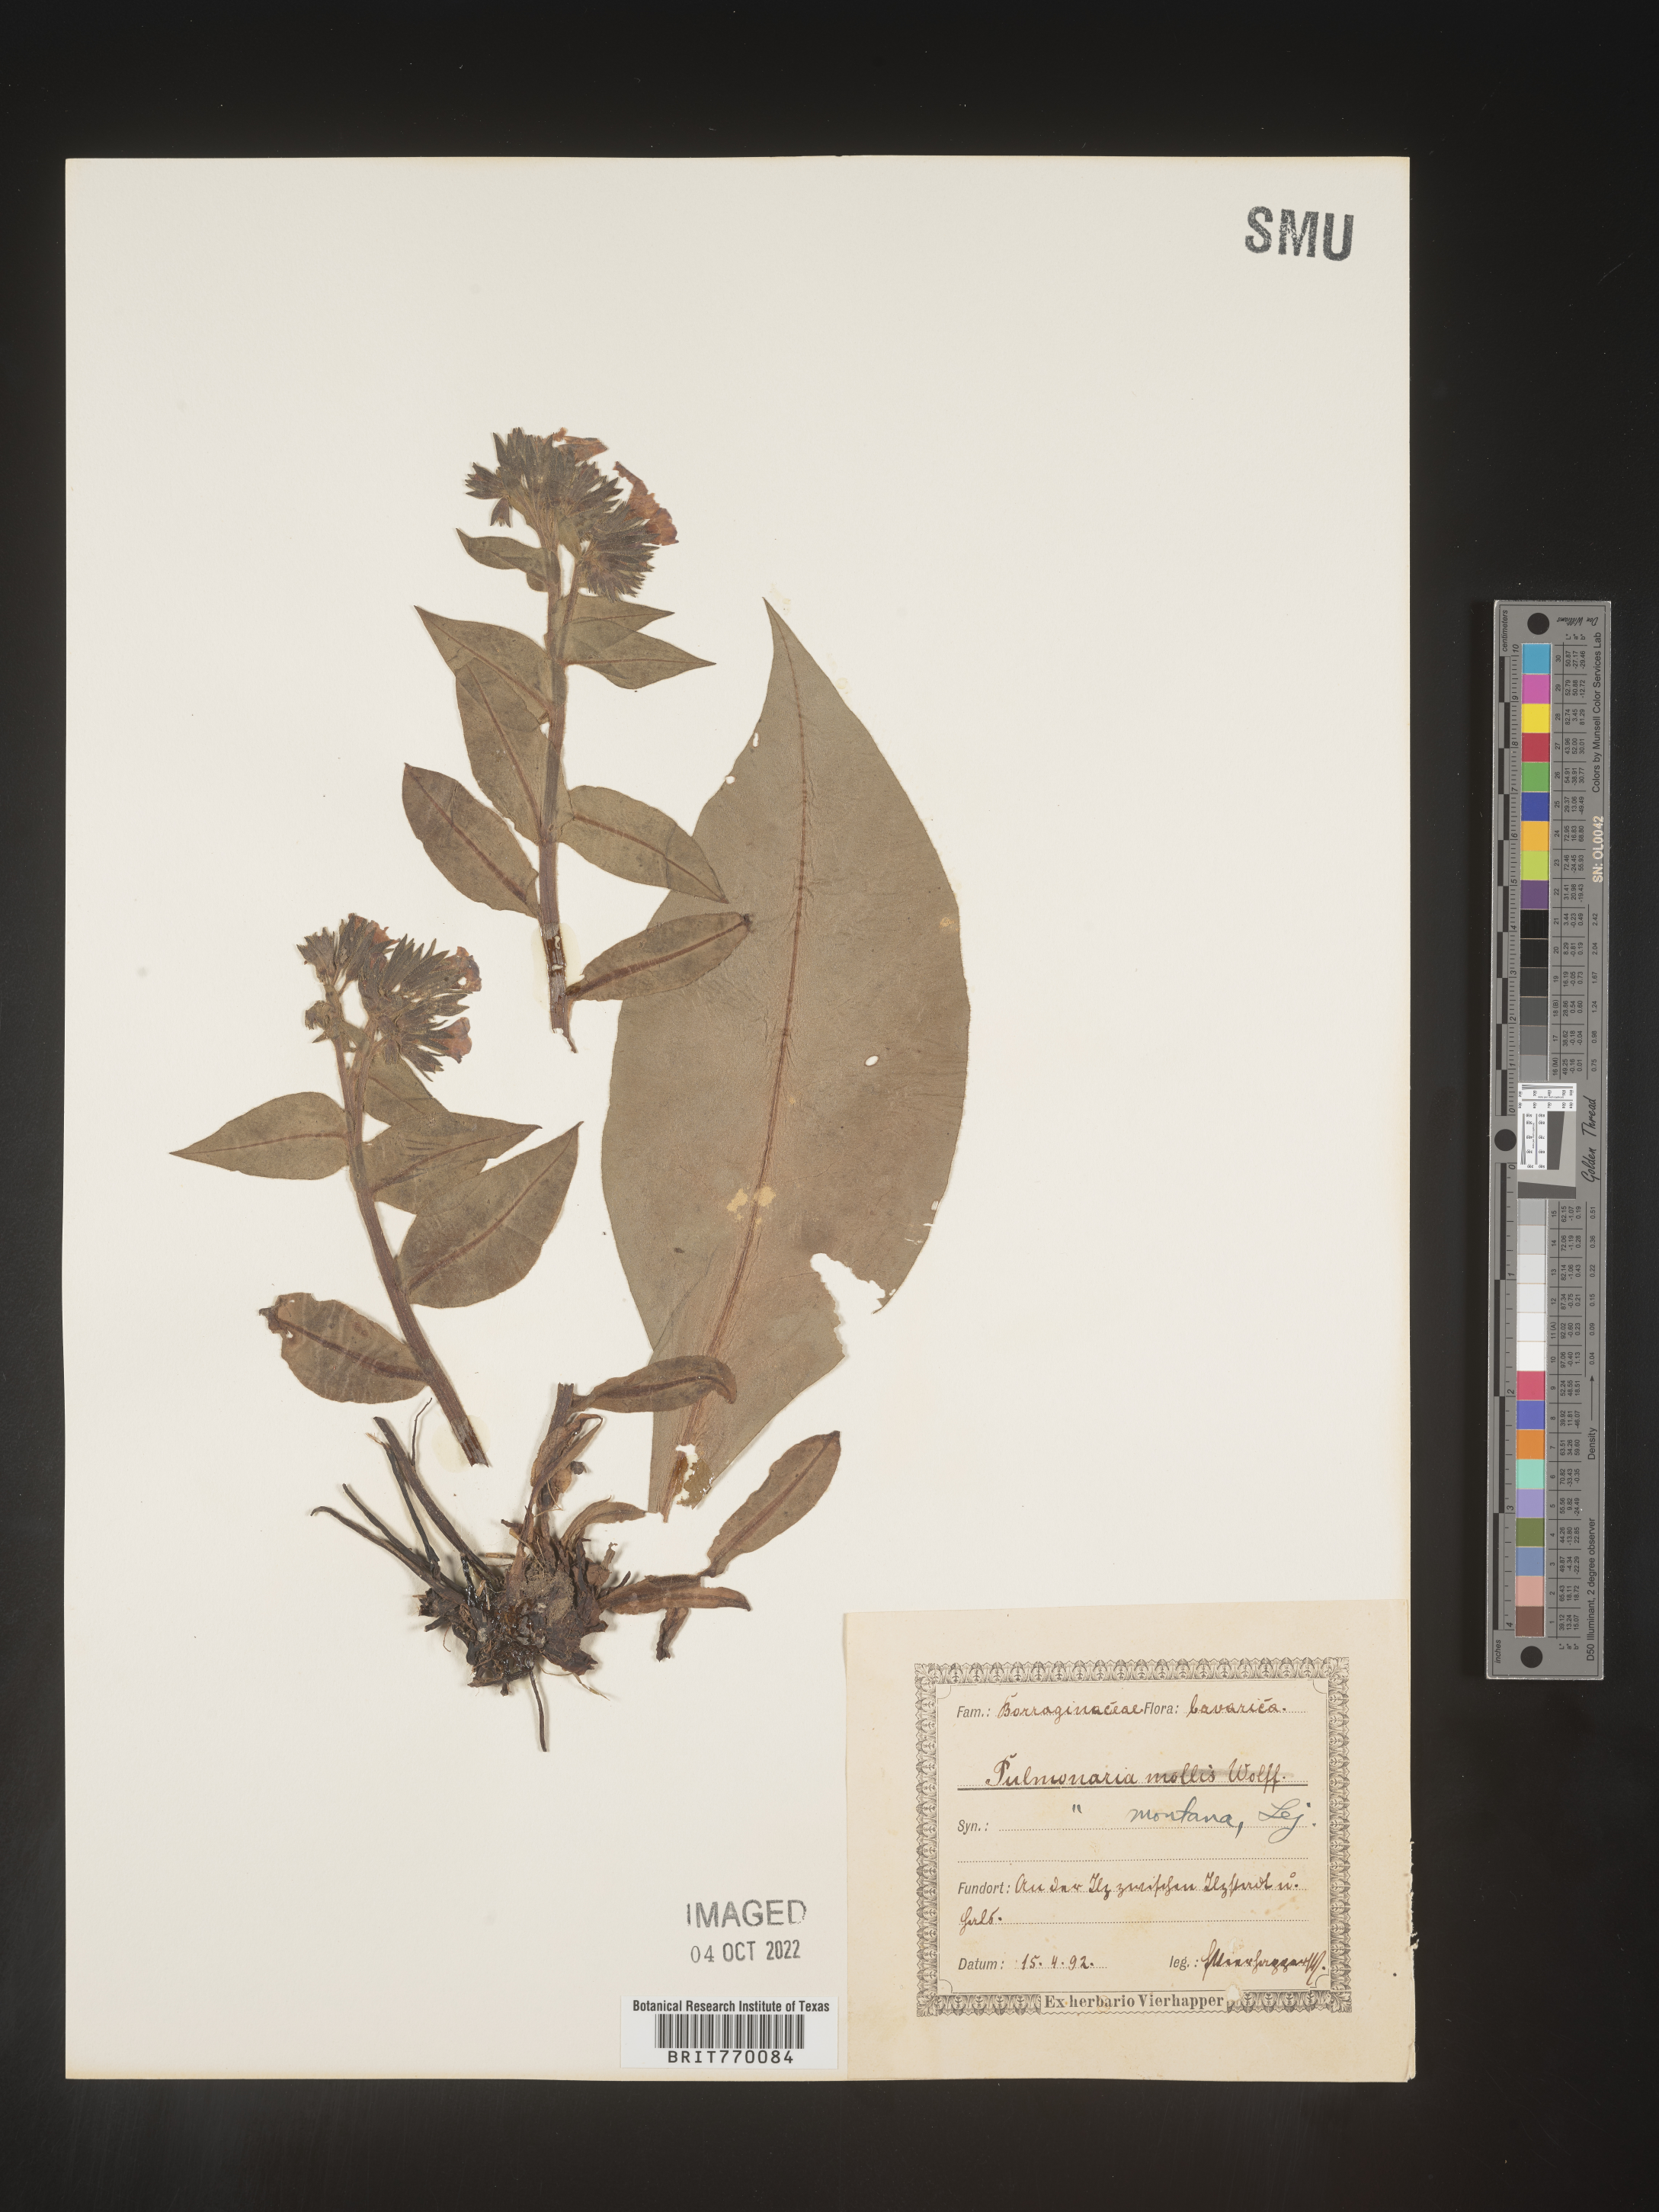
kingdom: Plantae
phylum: Tracheophyta
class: Magnoliopsida
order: Boraginales
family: Boraginaceae
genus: Pulmonaria
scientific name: Pulmonaria
